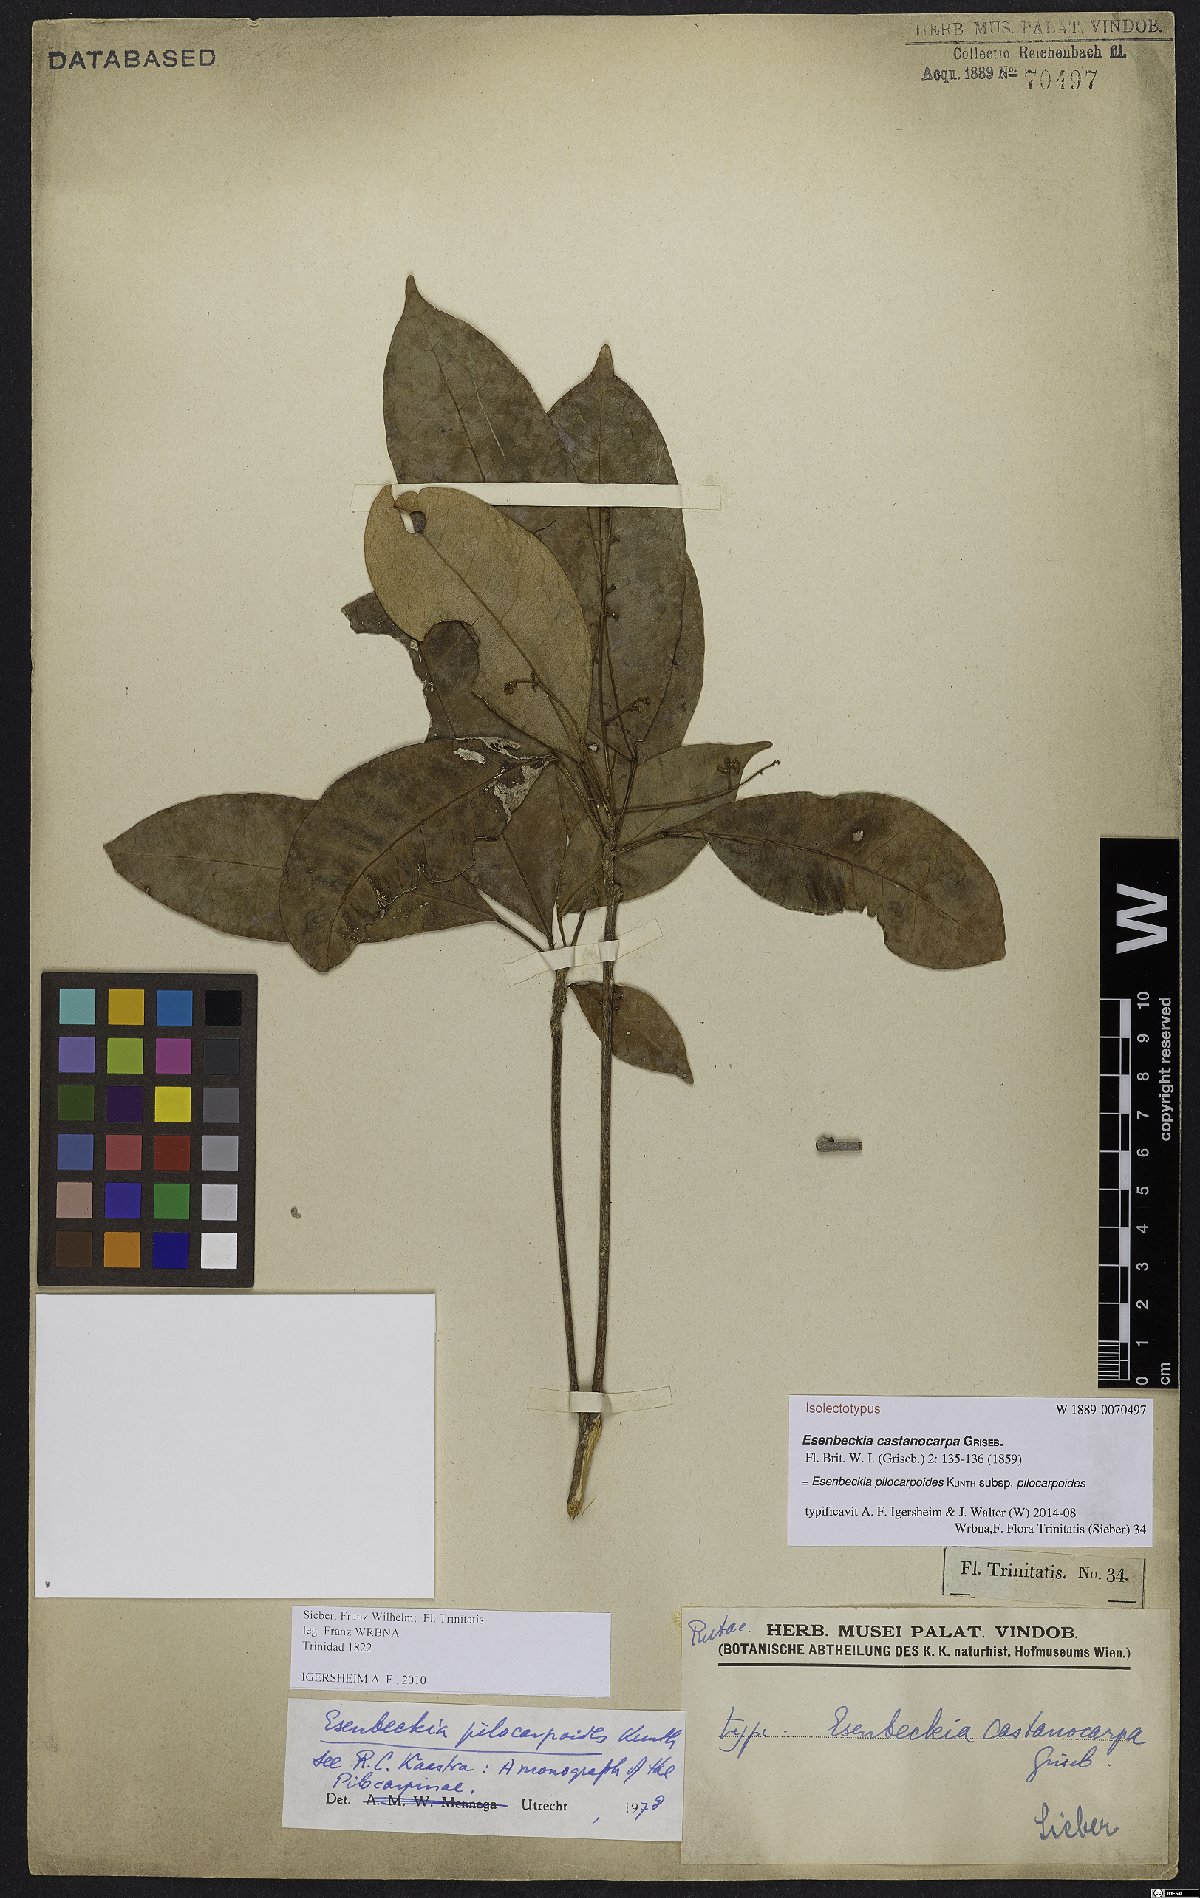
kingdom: Plantae
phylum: Tracheophyta
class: Magnoliopsida
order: Sapindales
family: Rutaceae
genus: Esenbeckia
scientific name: Esenbeckia pilocarpoides
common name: Pilosefruit esenbeckia
